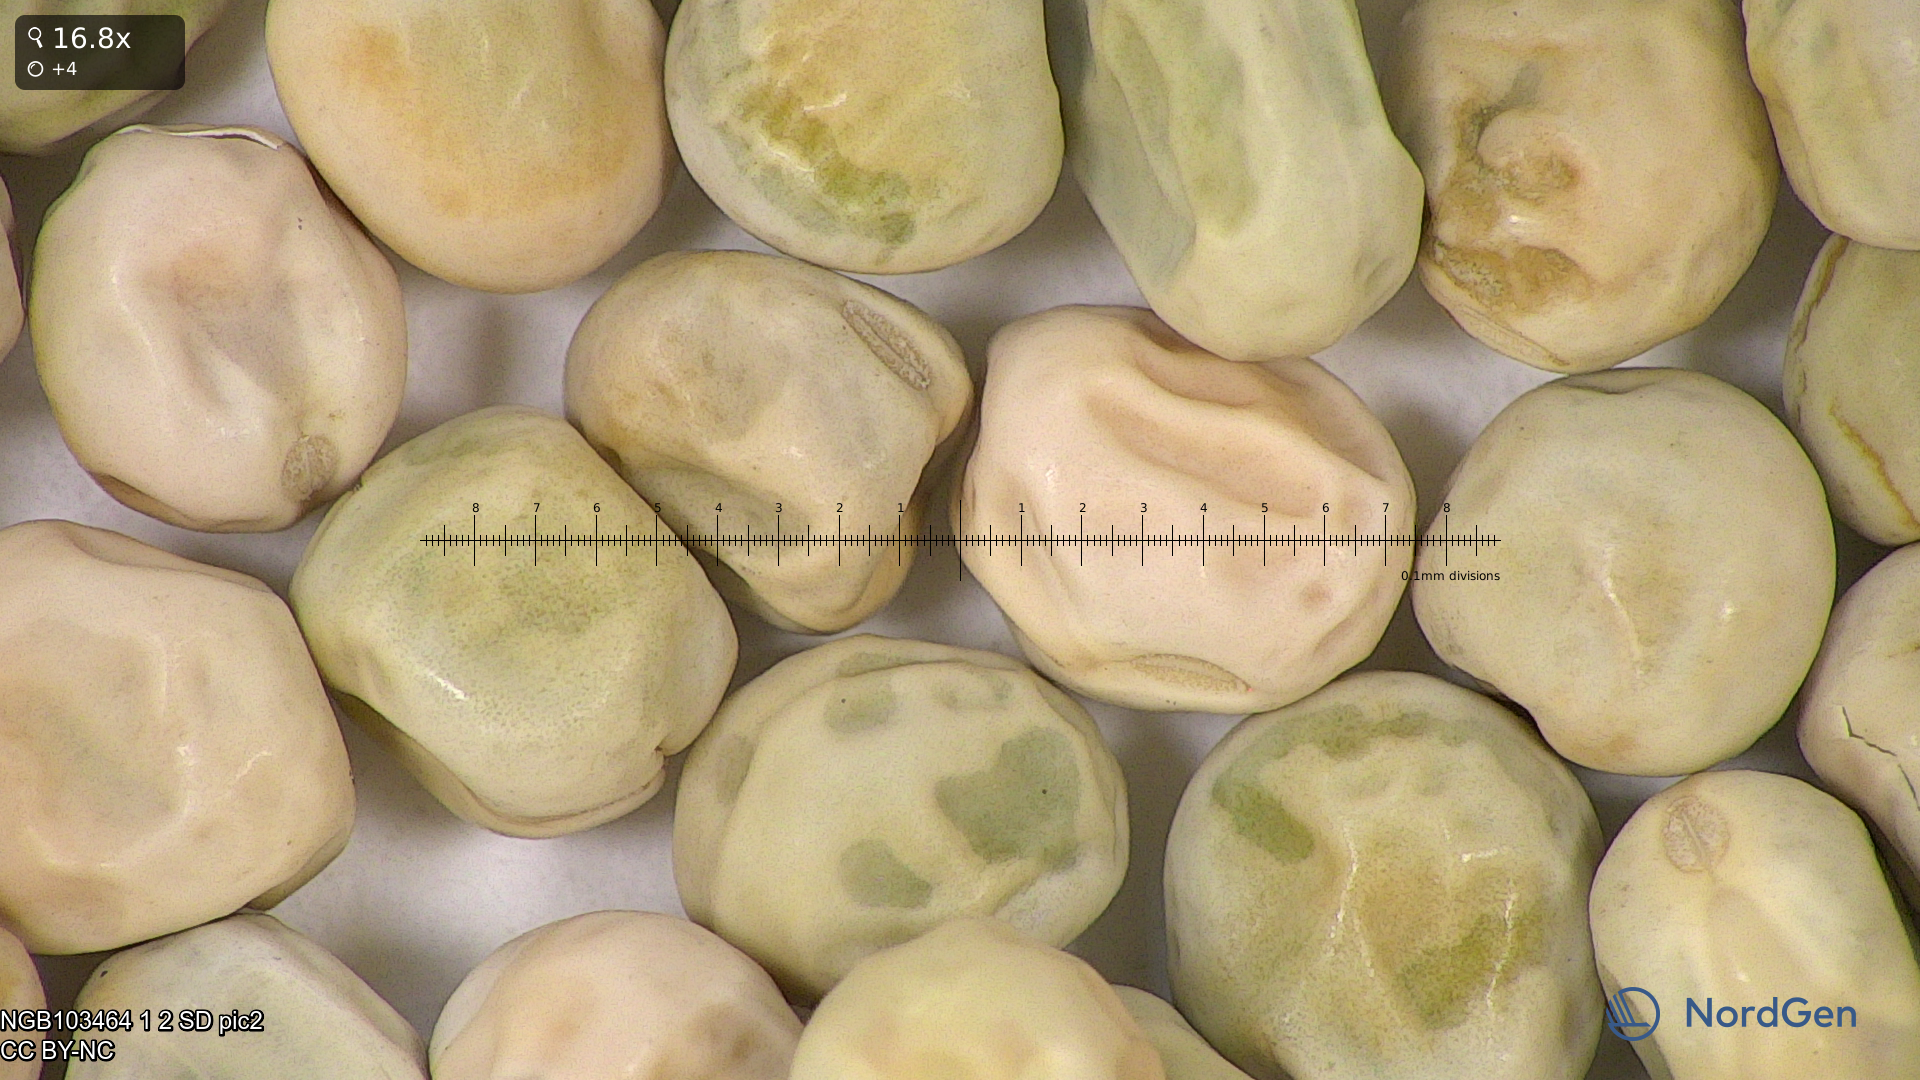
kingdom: Plantae
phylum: Tracheophyta
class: Magnoliopsida
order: Fabales
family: Fabaceae
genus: Lathyrus
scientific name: Lathyrus oleraceus
